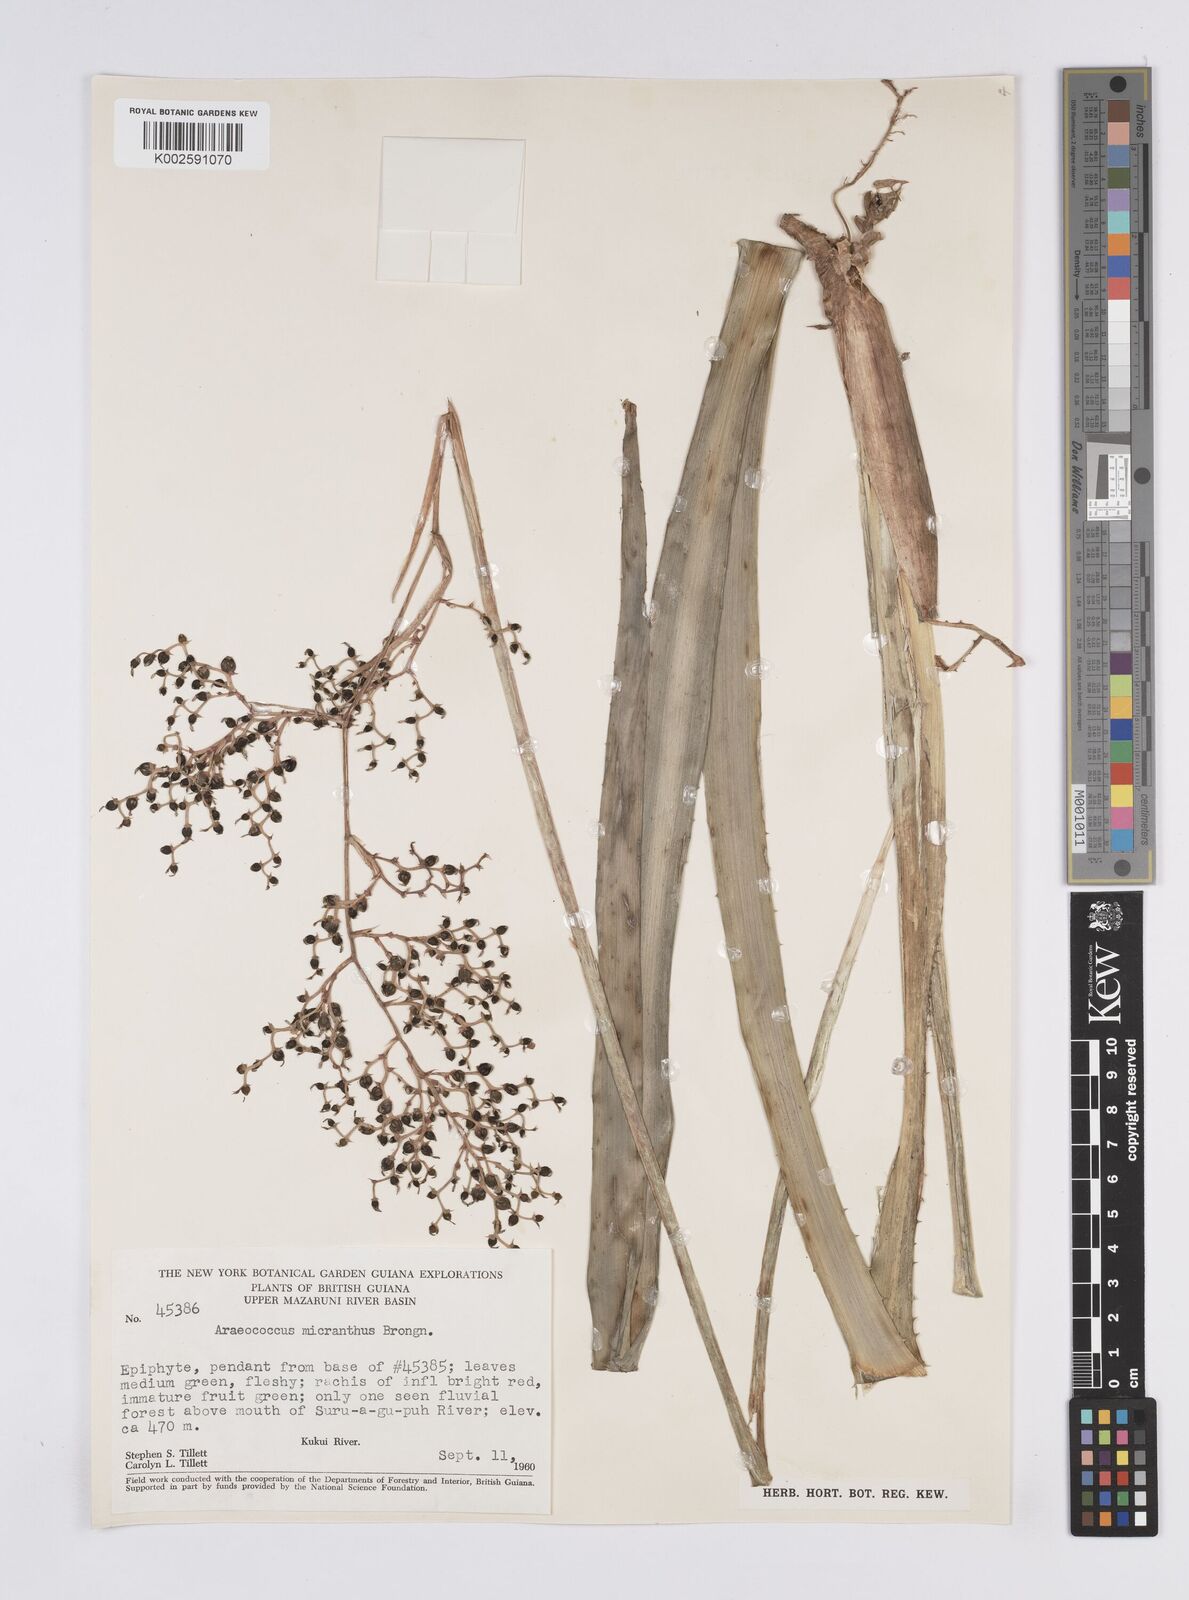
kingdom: Plantae
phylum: Tracheophyta
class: Liliopsida
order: Poales
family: Bromeliaceae
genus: Araeococcus
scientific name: Araeococcus micranthus
